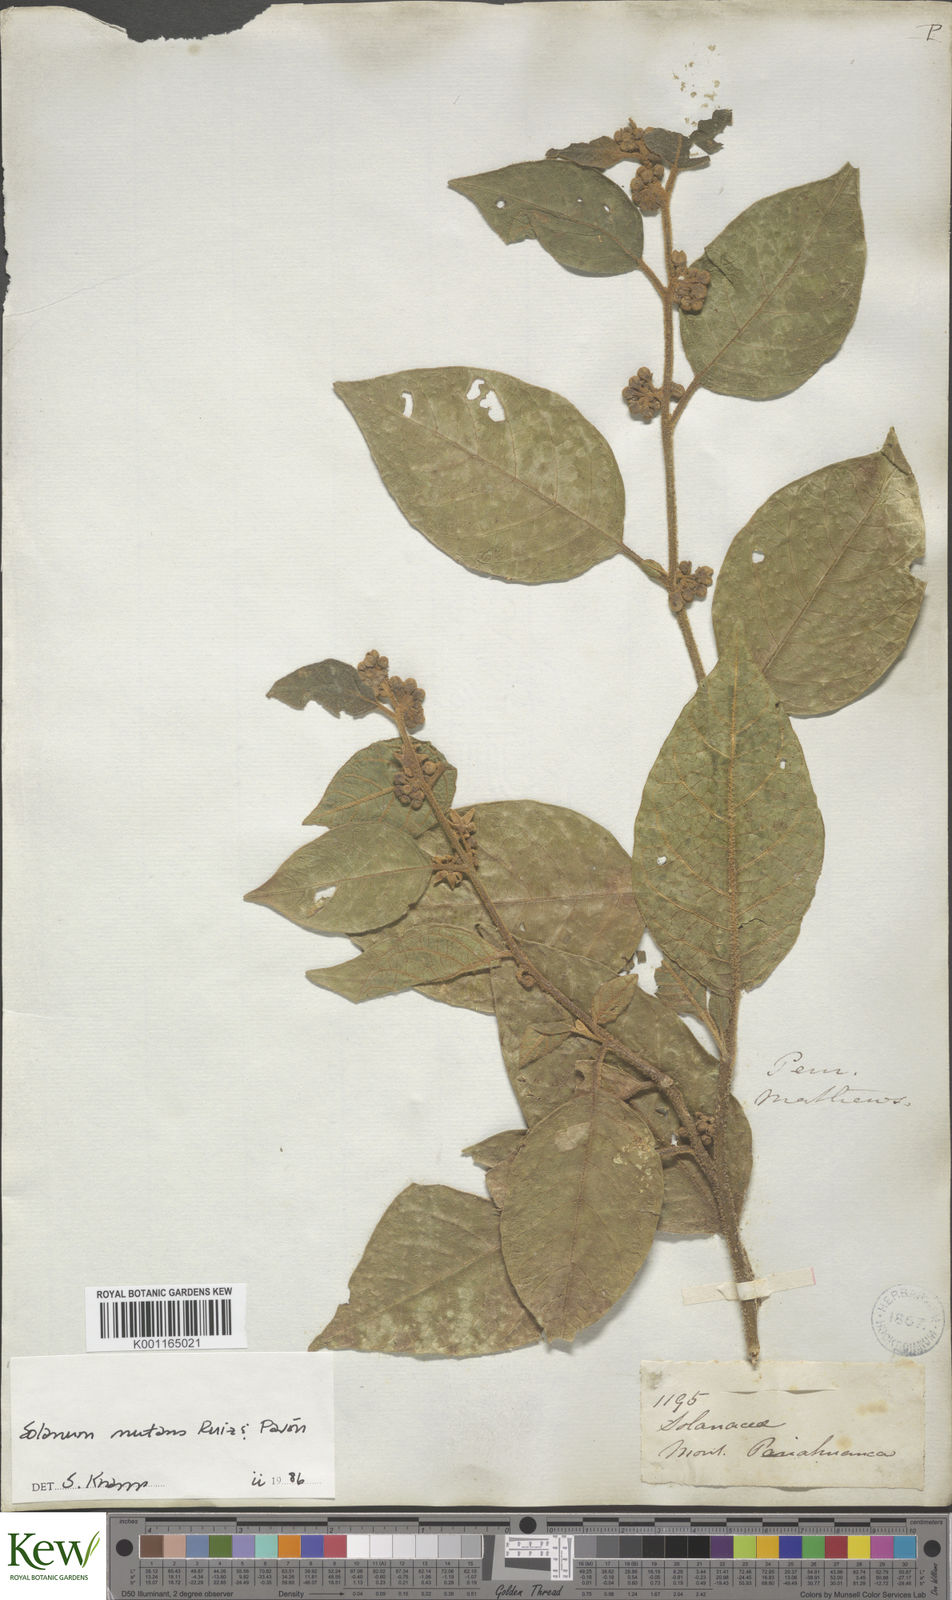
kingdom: Plantae
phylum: Tracheophyta
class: Magnoliopsida
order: Solanales
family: Solanaceae
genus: Solanum
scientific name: Solanum nutans
